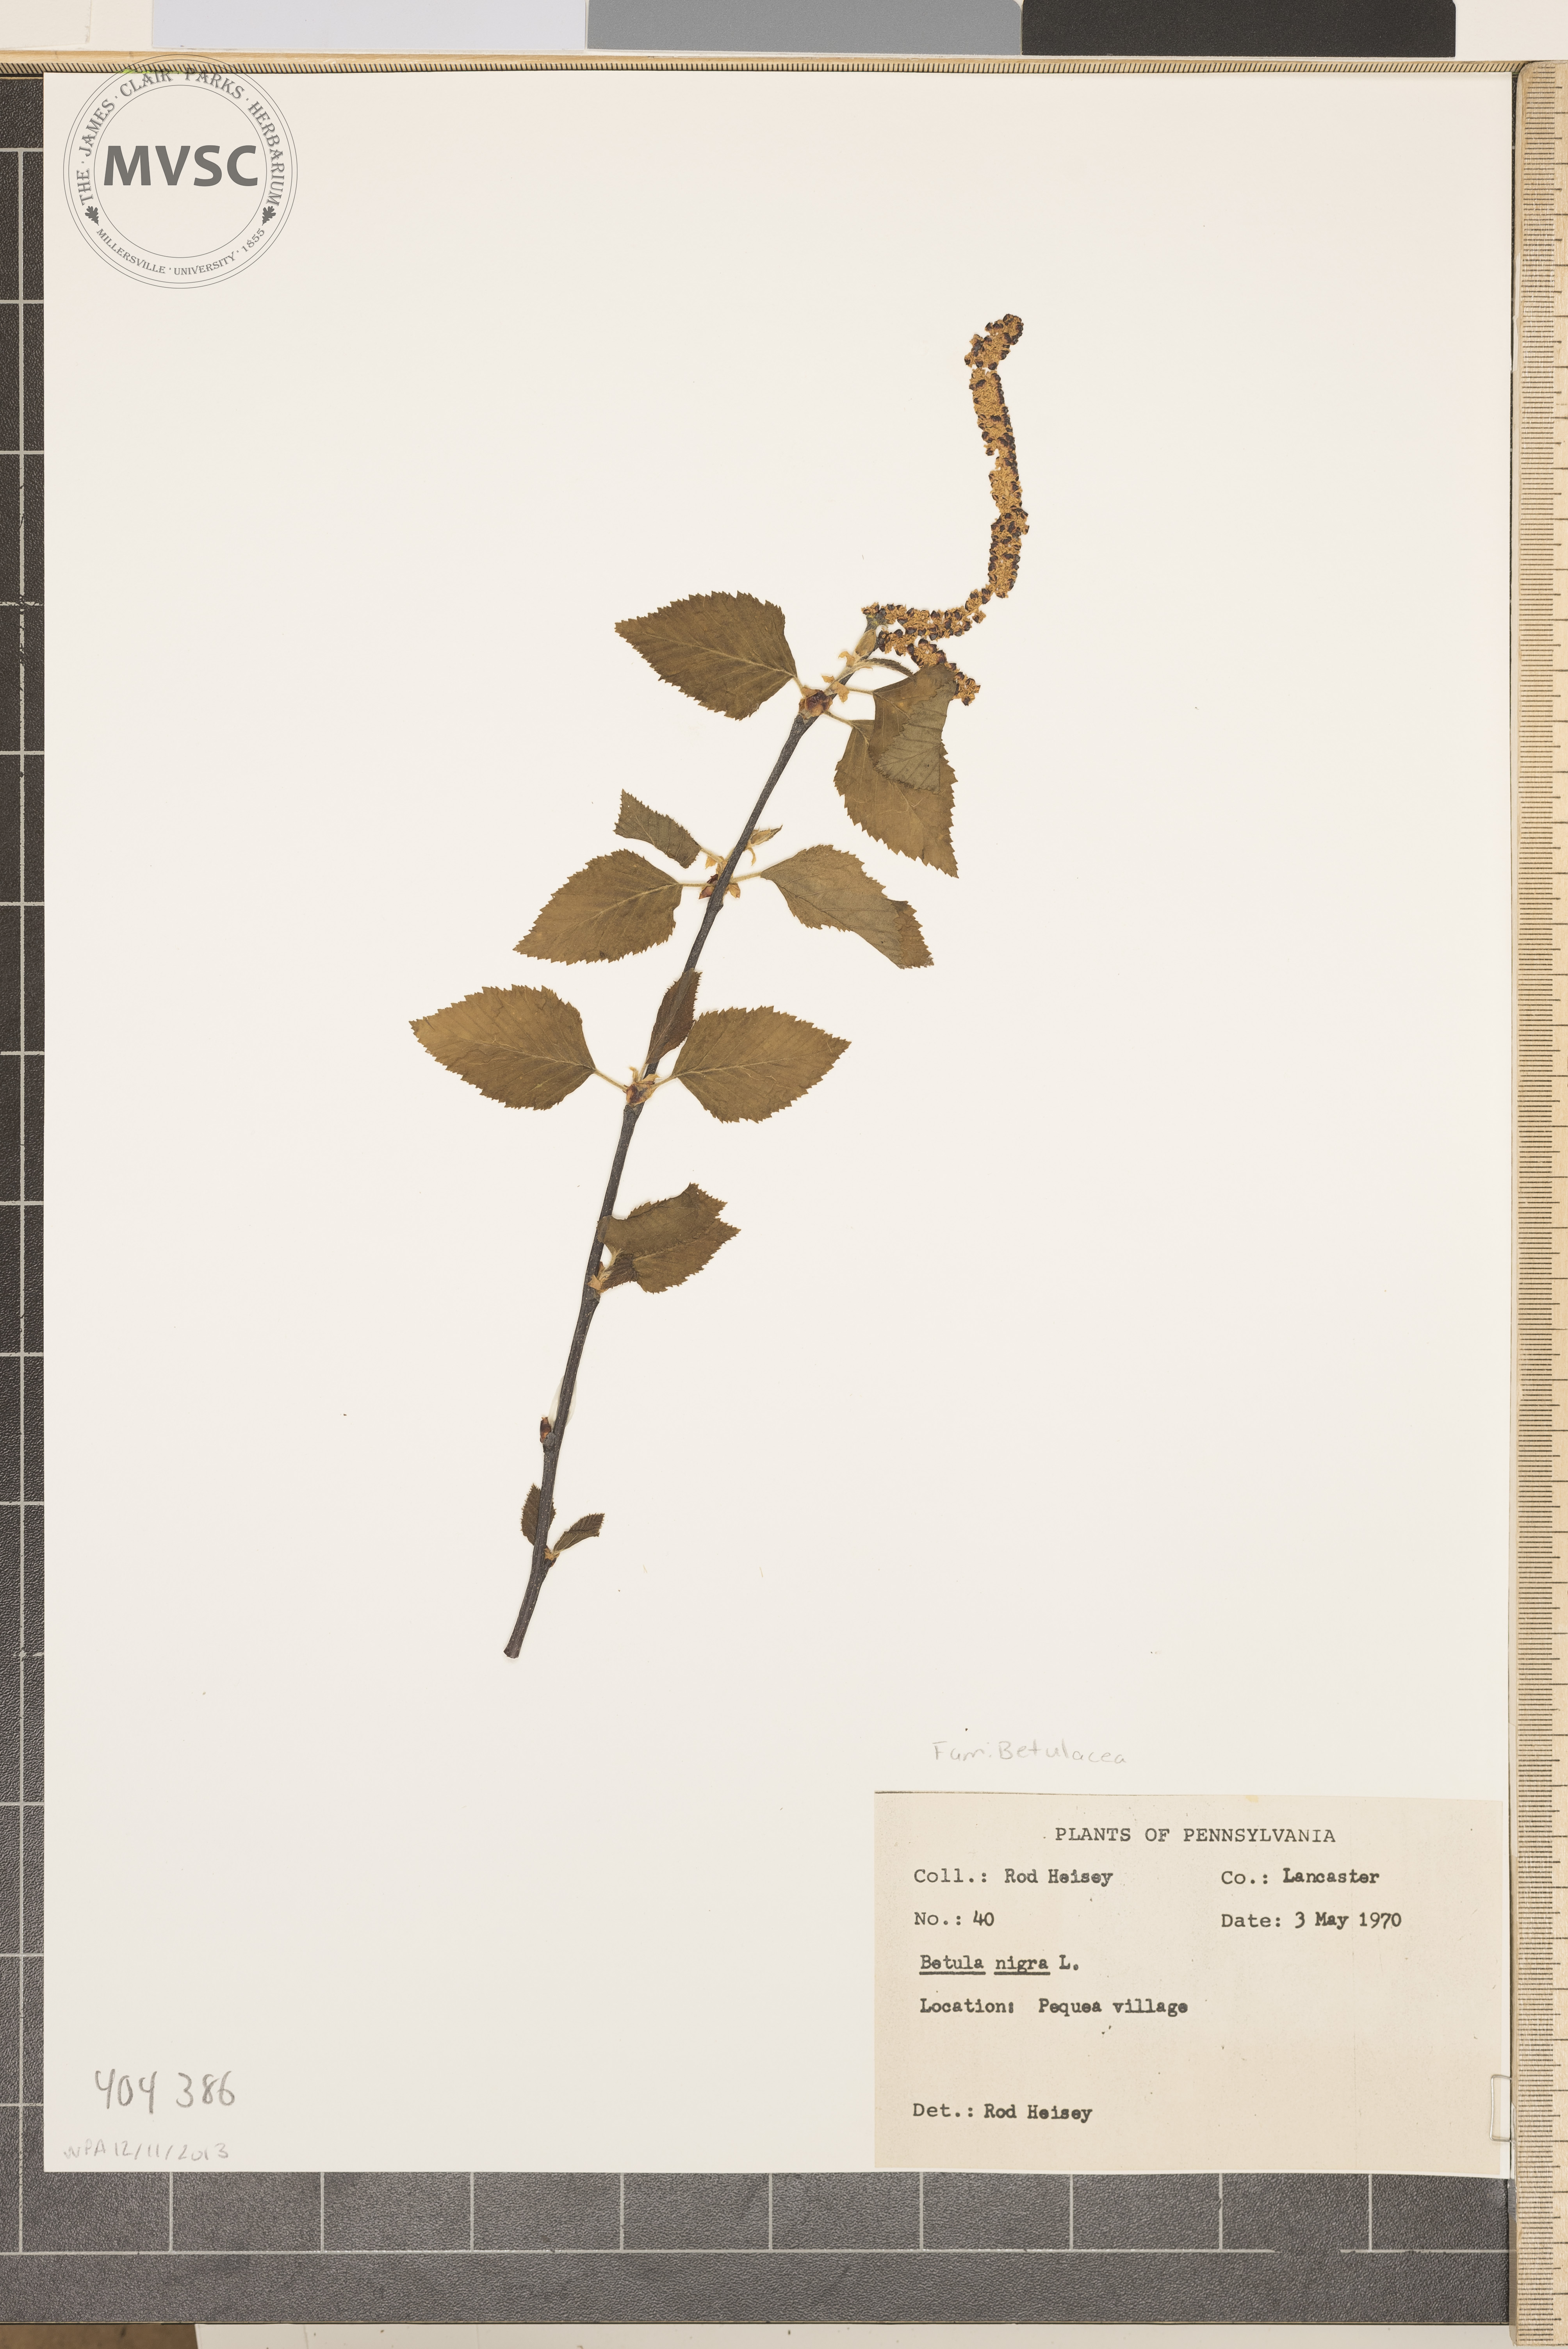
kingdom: Plantae
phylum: Tracheophyta
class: Magnoliopsida
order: Fagales
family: Betulaceae
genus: Betula
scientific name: Betula nigra
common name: Black birch
